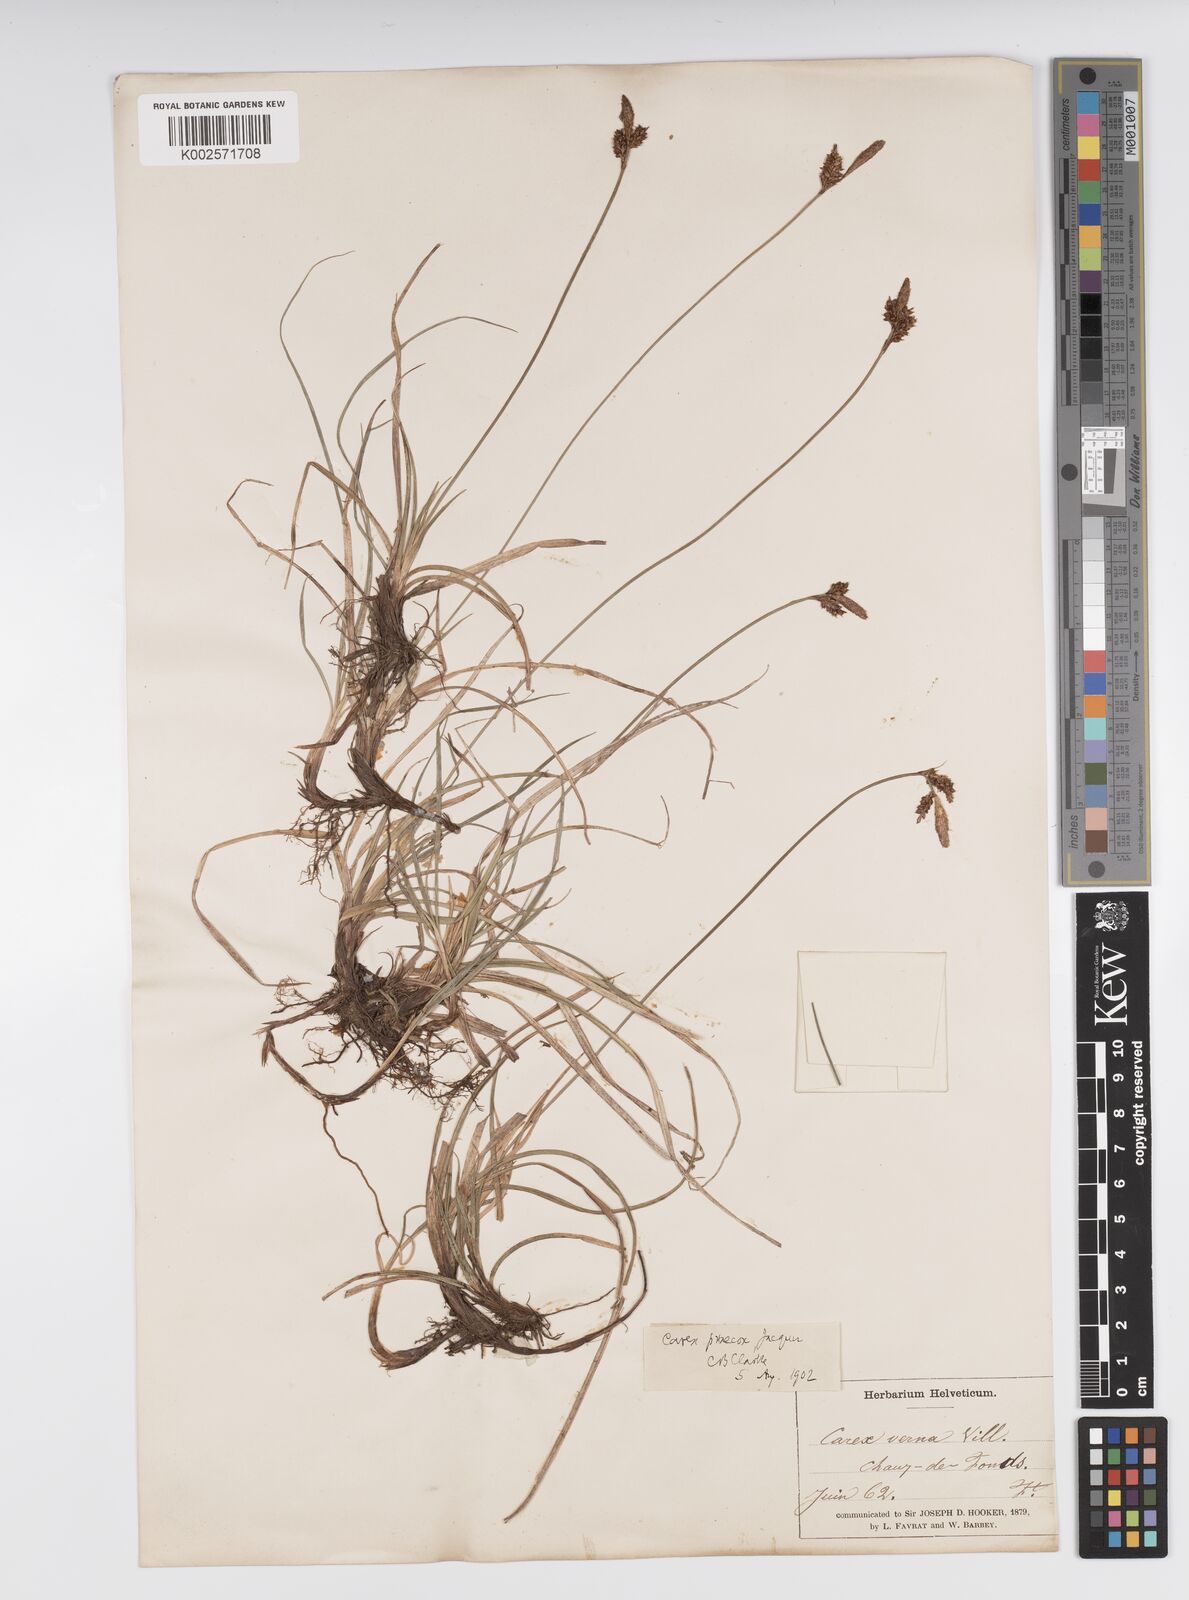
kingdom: Plantae
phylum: Tracheophyta
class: Liliopsida
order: Poales
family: Cyperaceae
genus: Carex
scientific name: Carex caryophyllea
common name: Spring sedge
